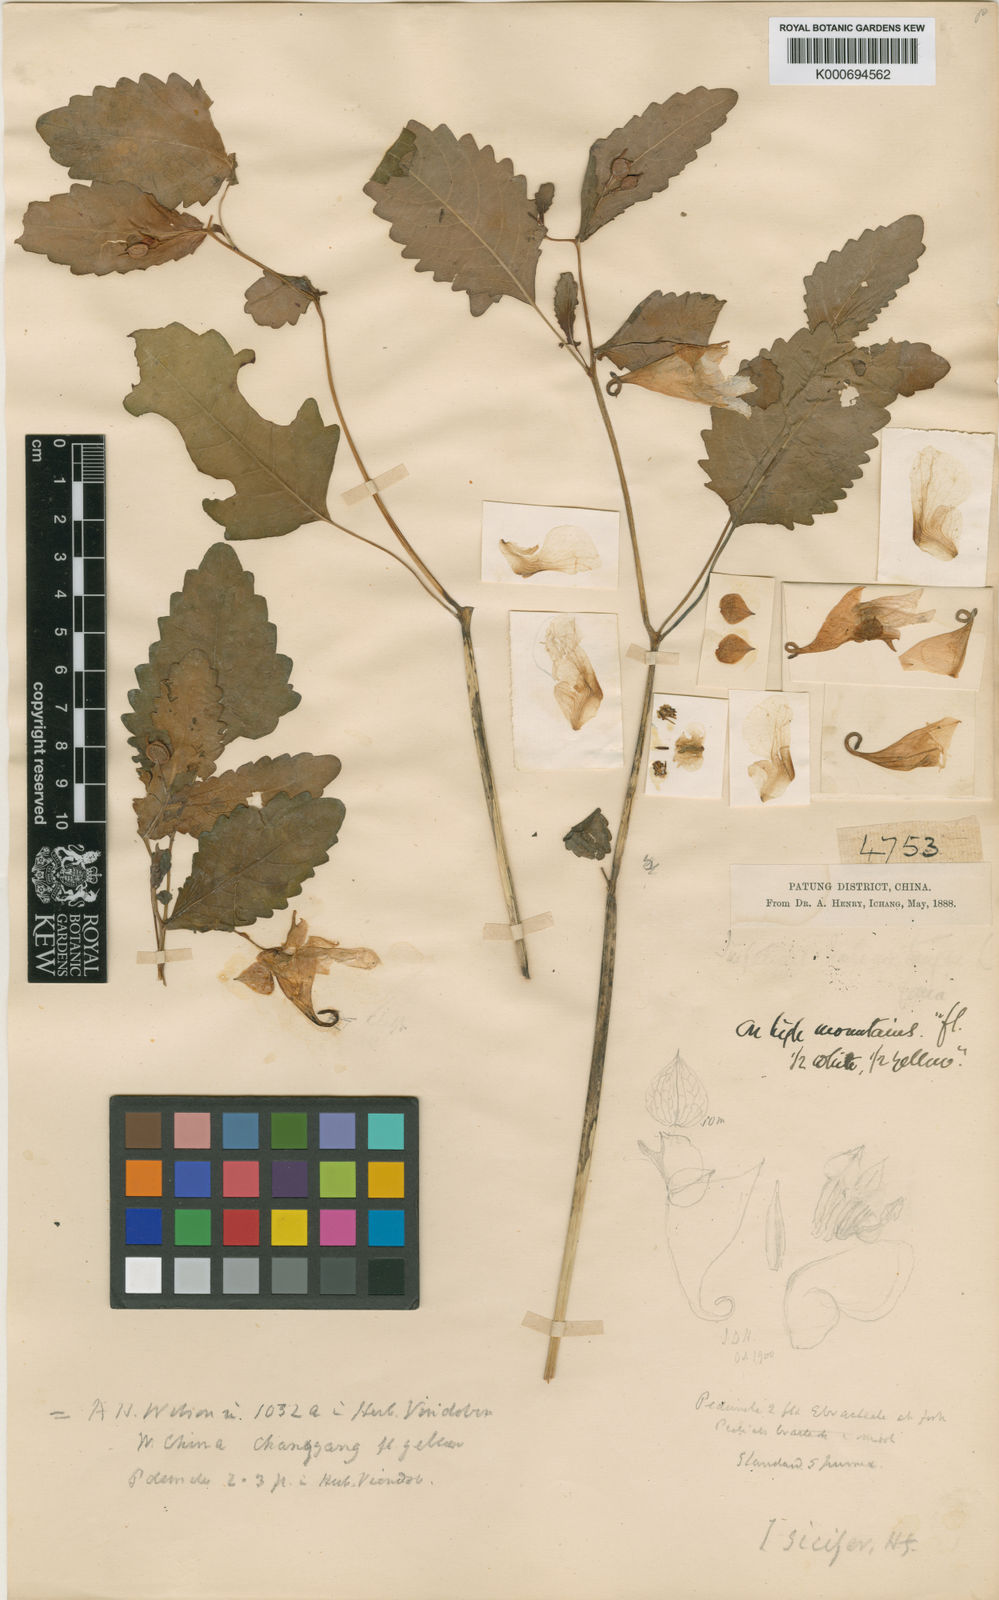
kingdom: Plantae
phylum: Tracheophyta
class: Magnoliopsida
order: Ericales
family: Balsaminaceae
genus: Impatiens
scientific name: Impatiens
